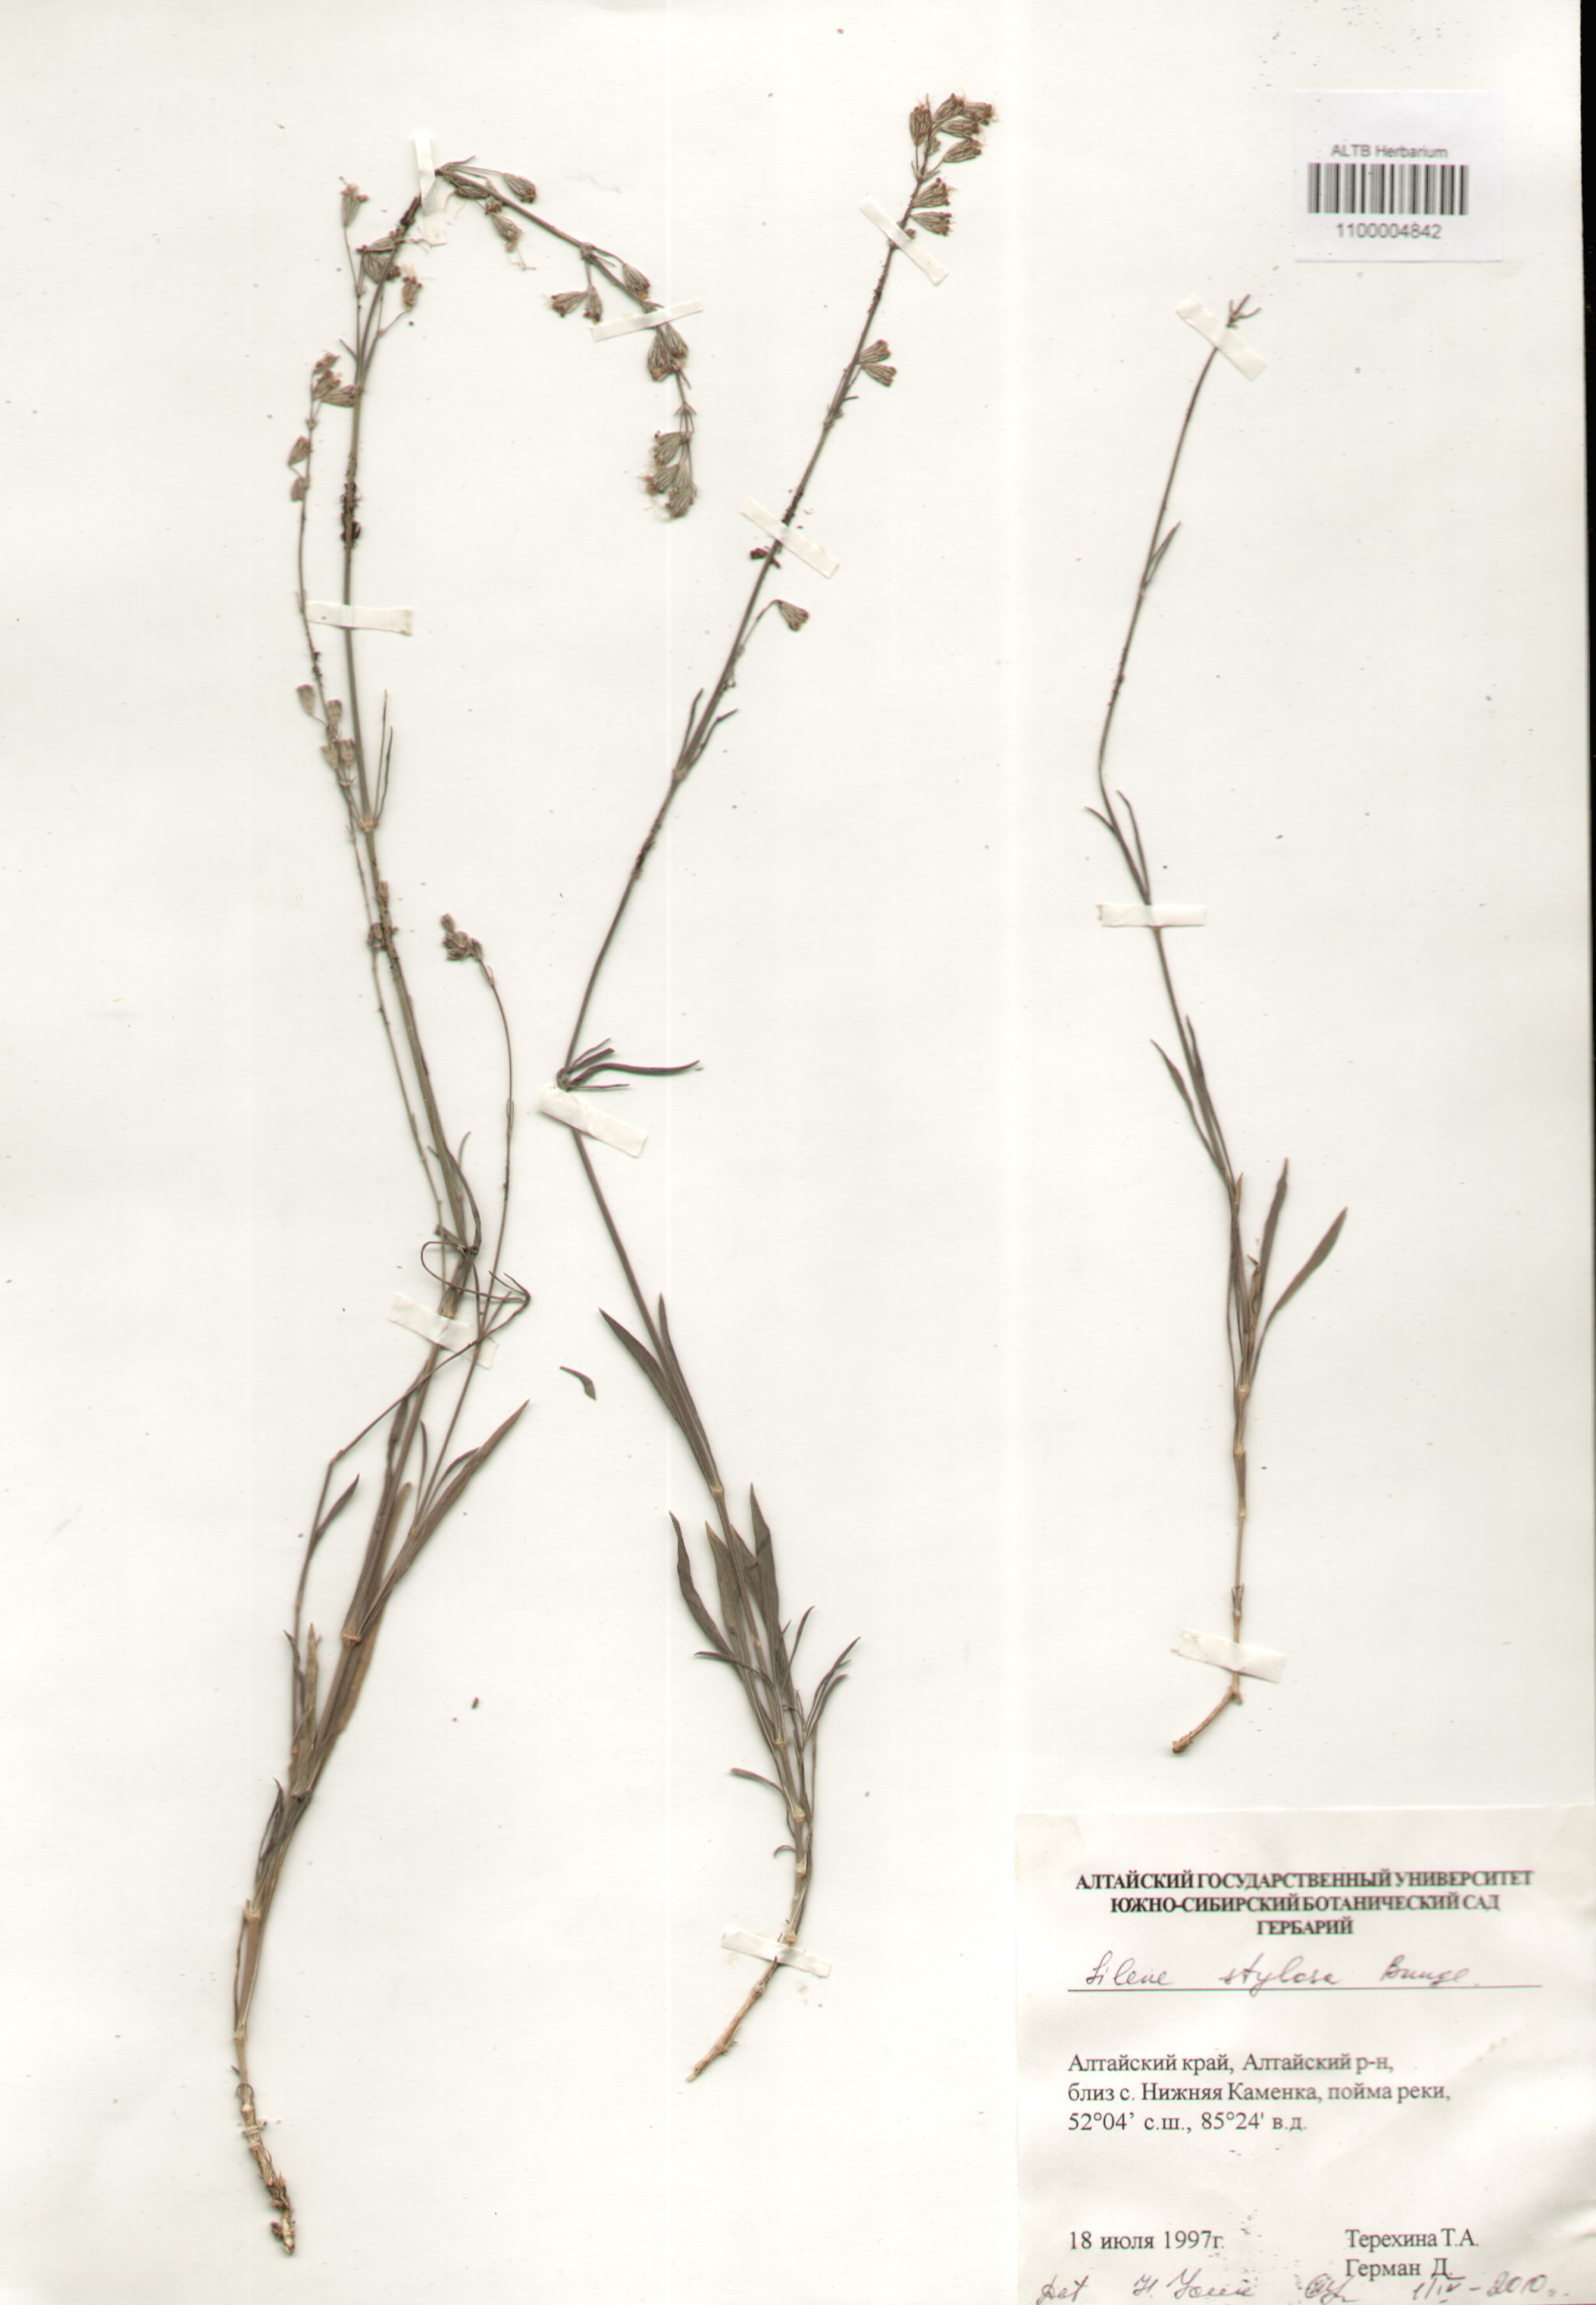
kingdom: Plantae
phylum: Tracheophyta
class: Magnoliopsida
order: Caryophyllales
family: Caryophyllaceae
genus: Silene
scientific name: Silene graminifolia
